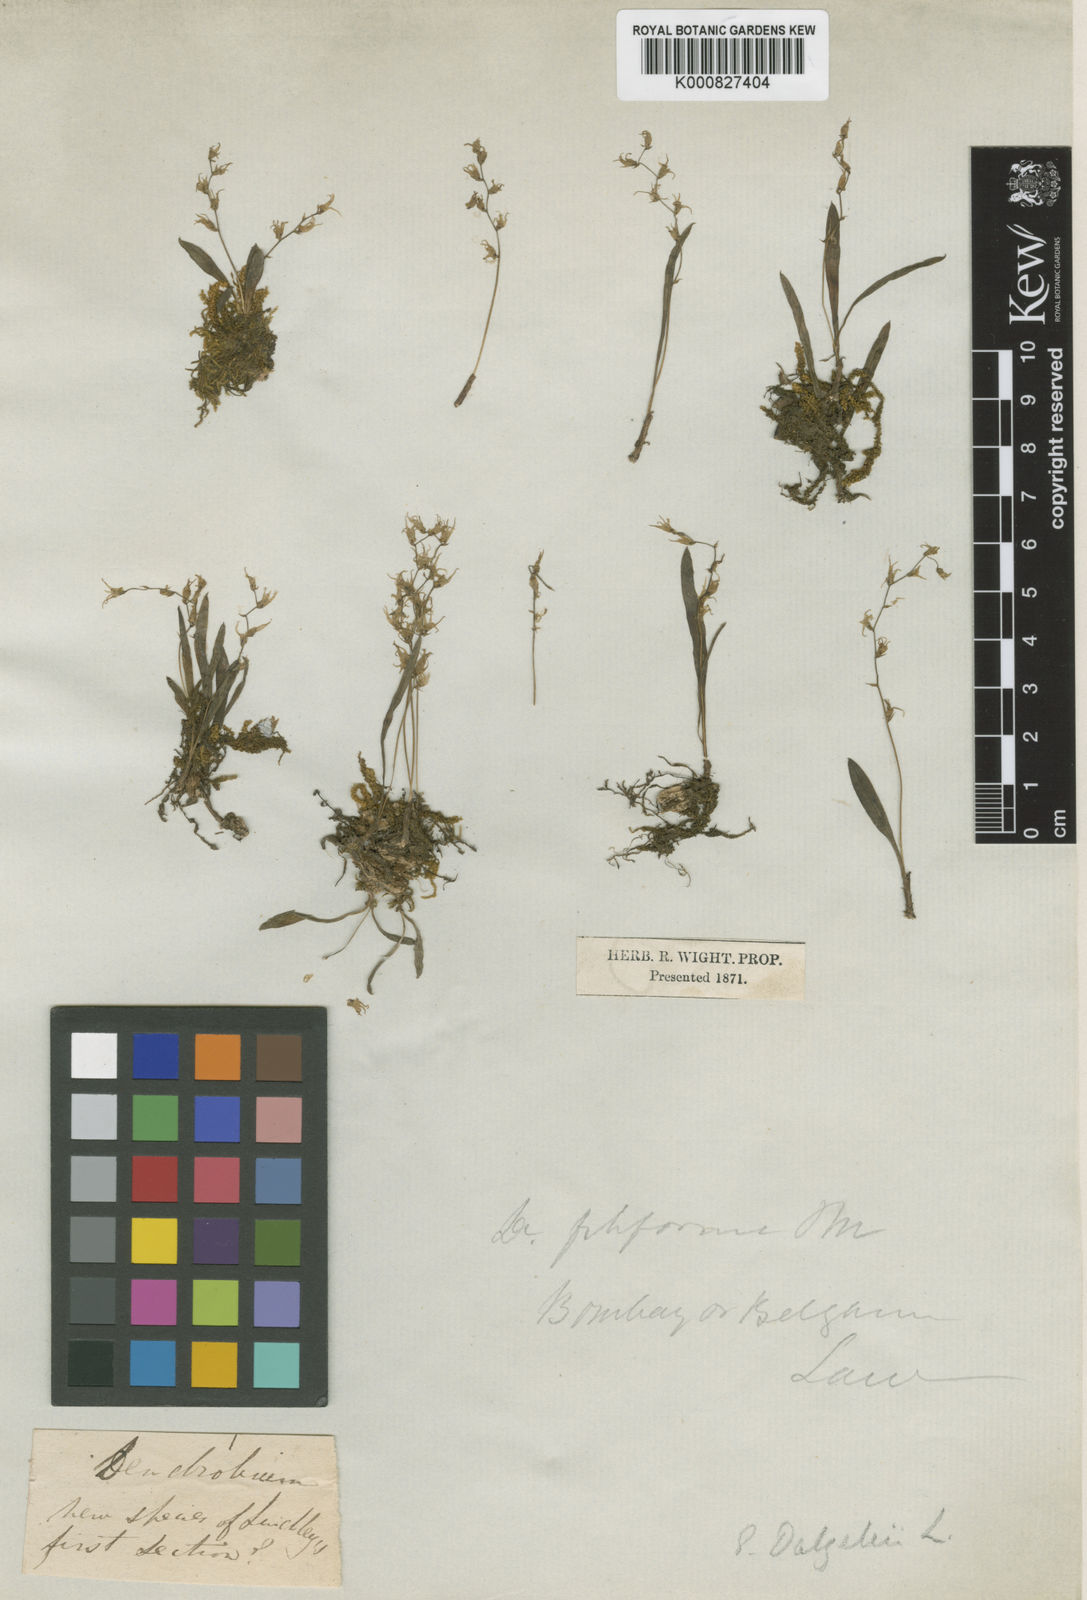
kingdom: Plantae
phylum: Tracheophyta
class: Liliopsida
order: Asparagales
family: Orchidaceae
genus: Porpax
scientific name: Porpax filiformis
